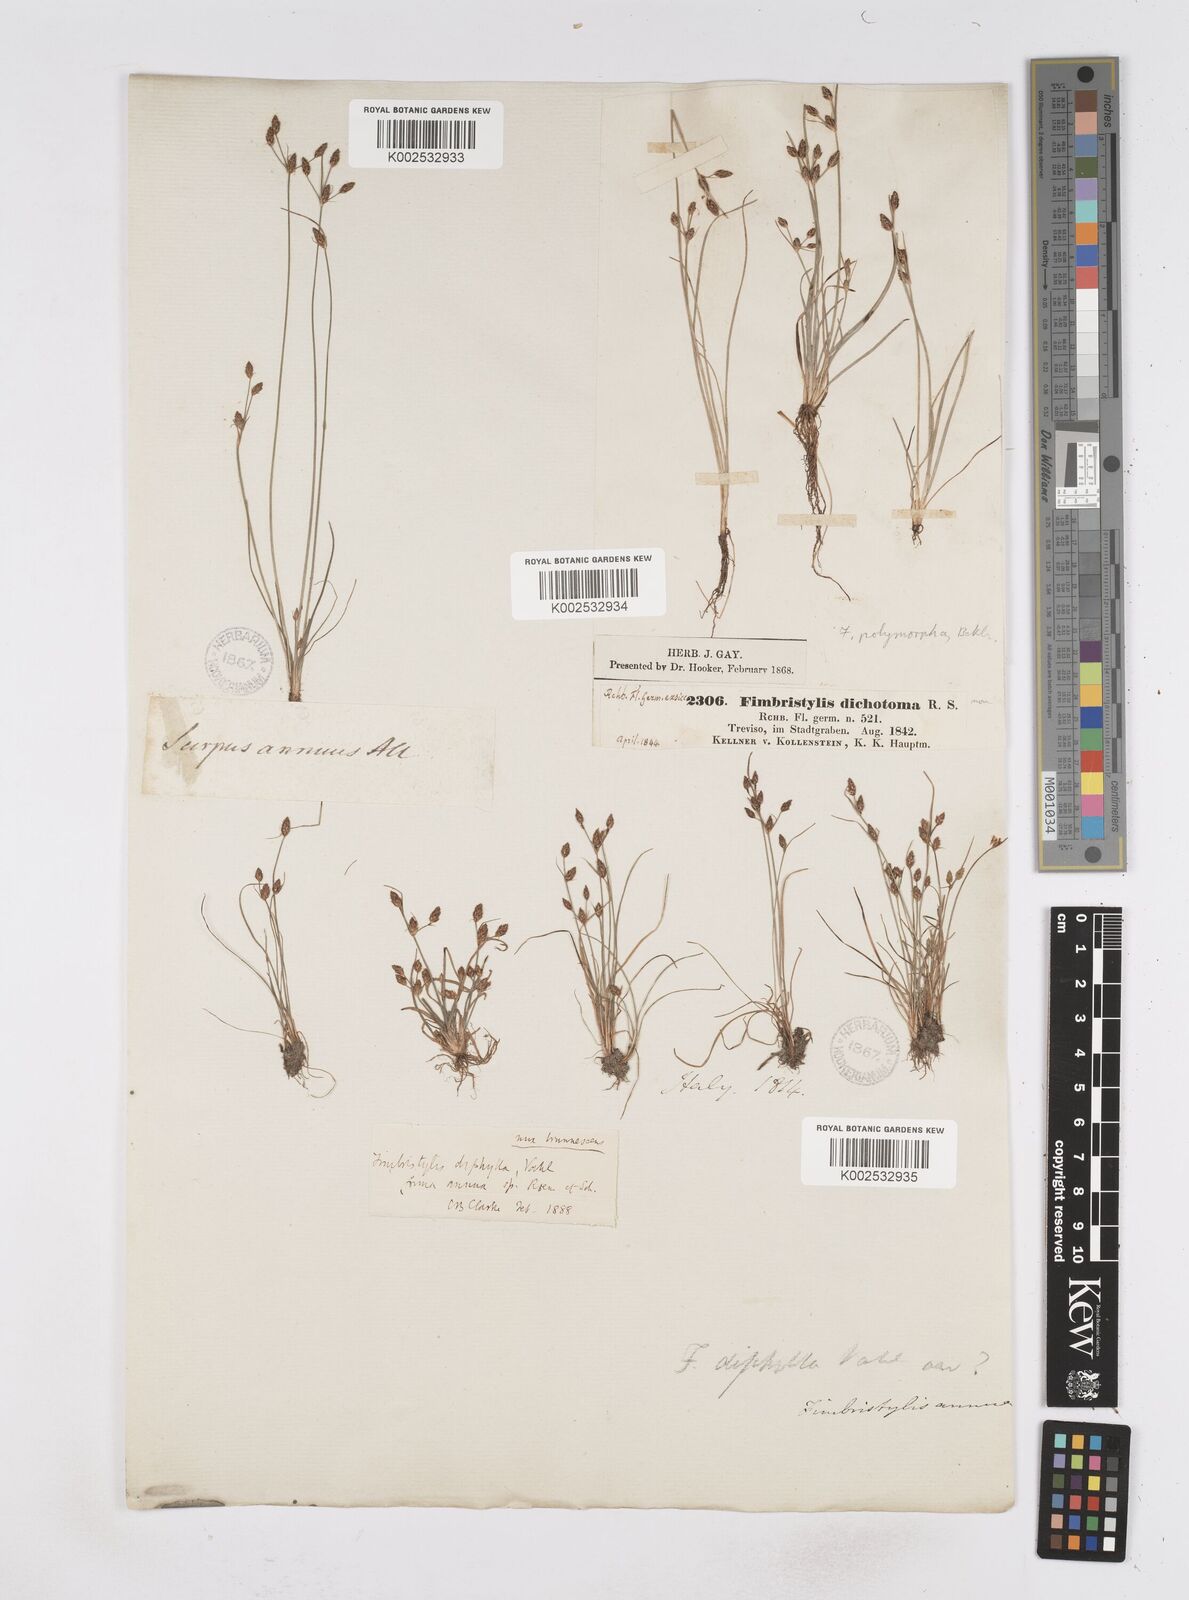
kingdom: Plantae
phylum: Tracheophyta
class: Liliopsida
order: Poales
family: Cyperaceae
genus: Fimbristylis
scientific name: Fimbristylis dichotoma
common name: Forked fimbry
